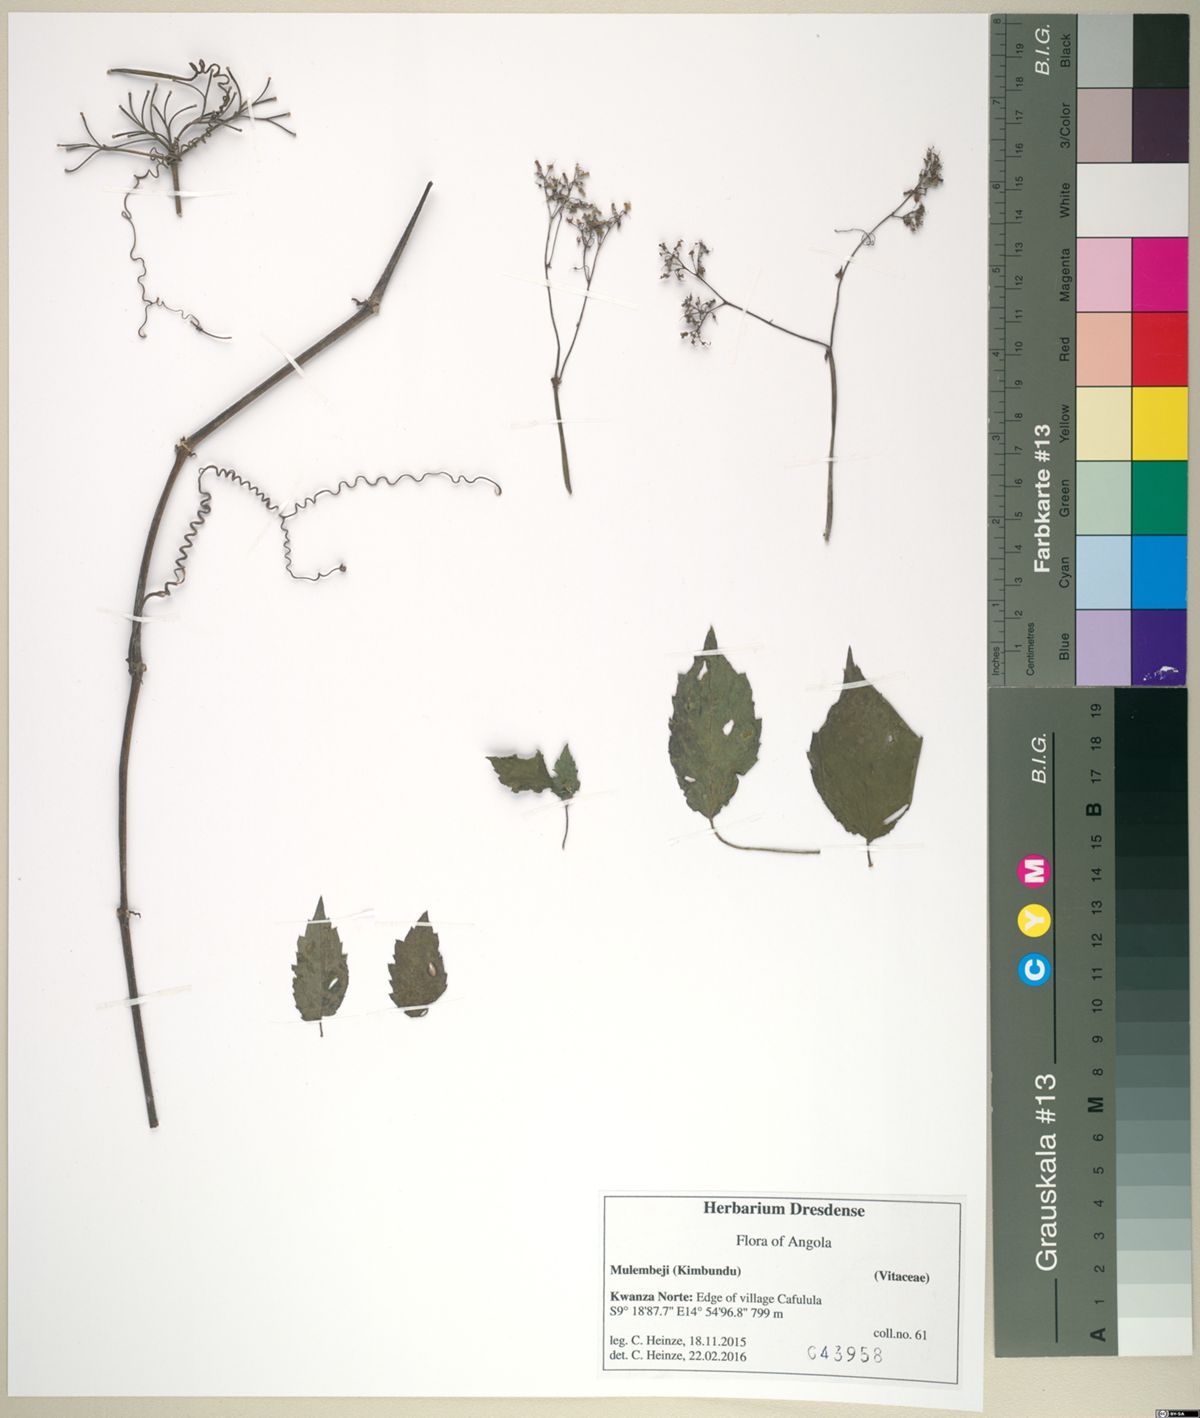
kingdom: Plantae
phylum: Tracheophyta
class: Magnoliopsida
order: Vitales
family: Vitaceae
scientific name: Vitaceae
